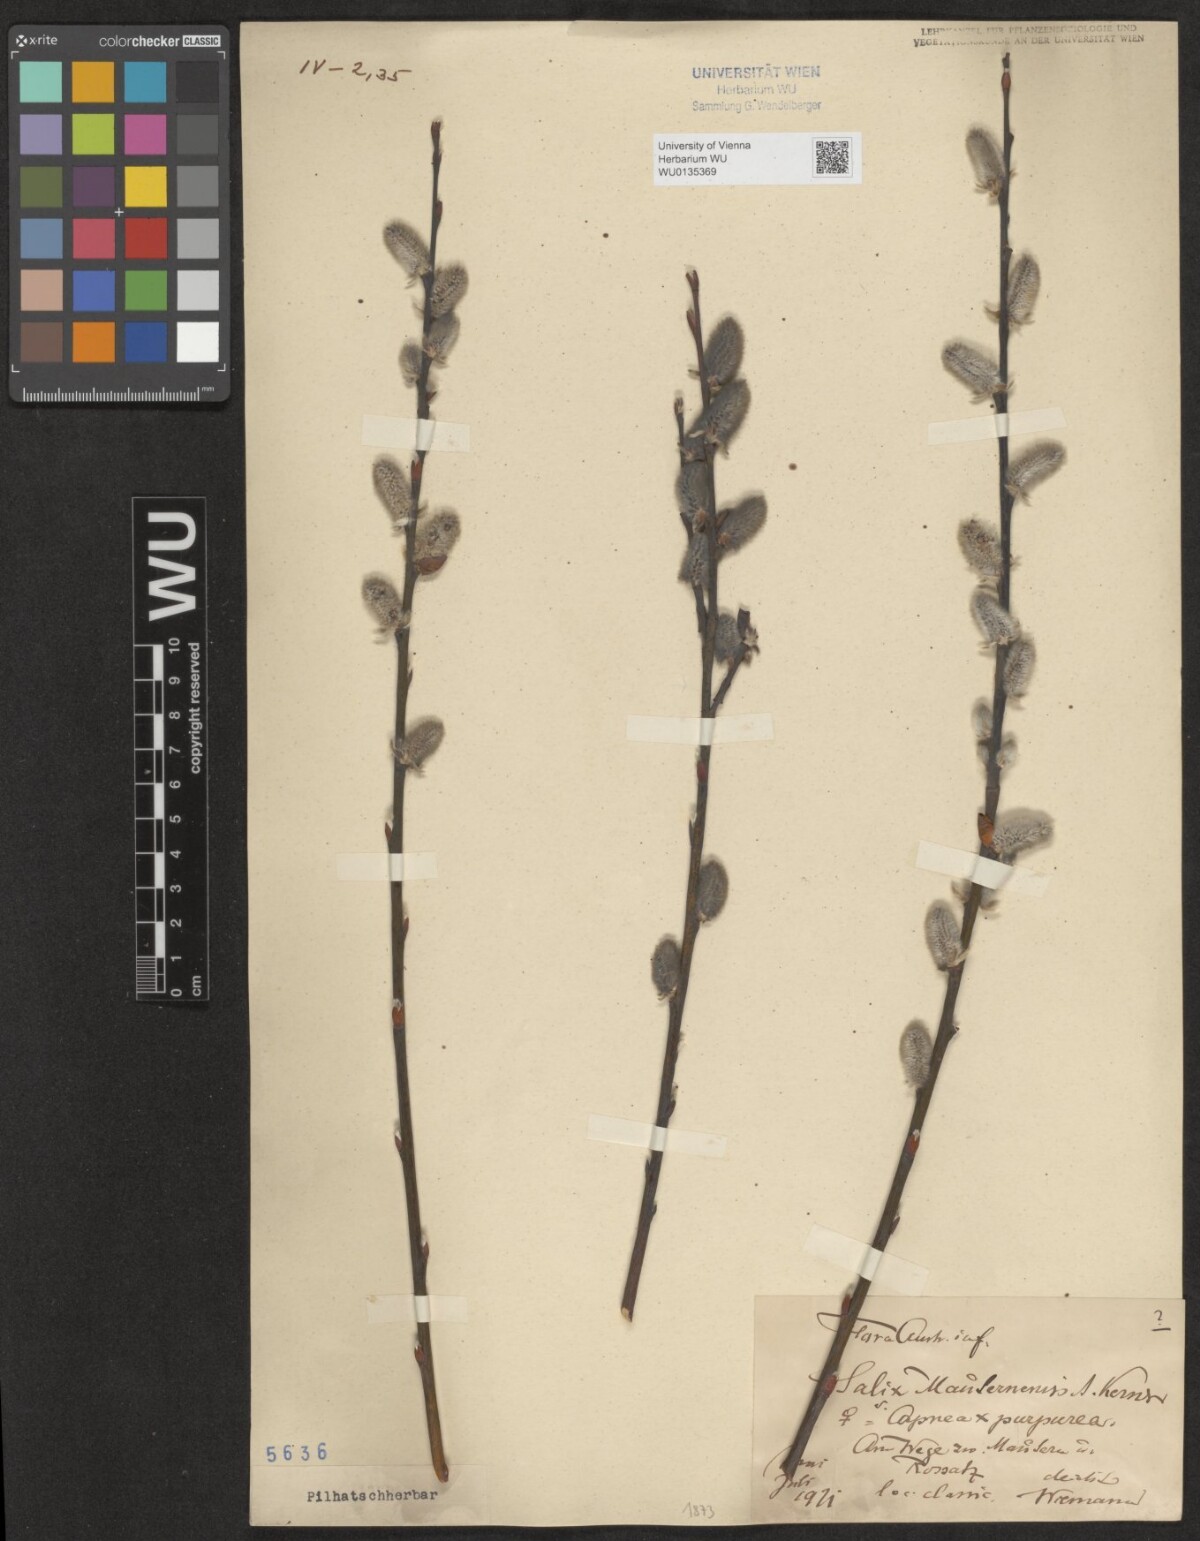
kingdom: Plantae
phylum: Tracheophyta
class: Magnoliopsida
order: Malpighiales
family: Salicaceae
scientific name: Salicaceae
